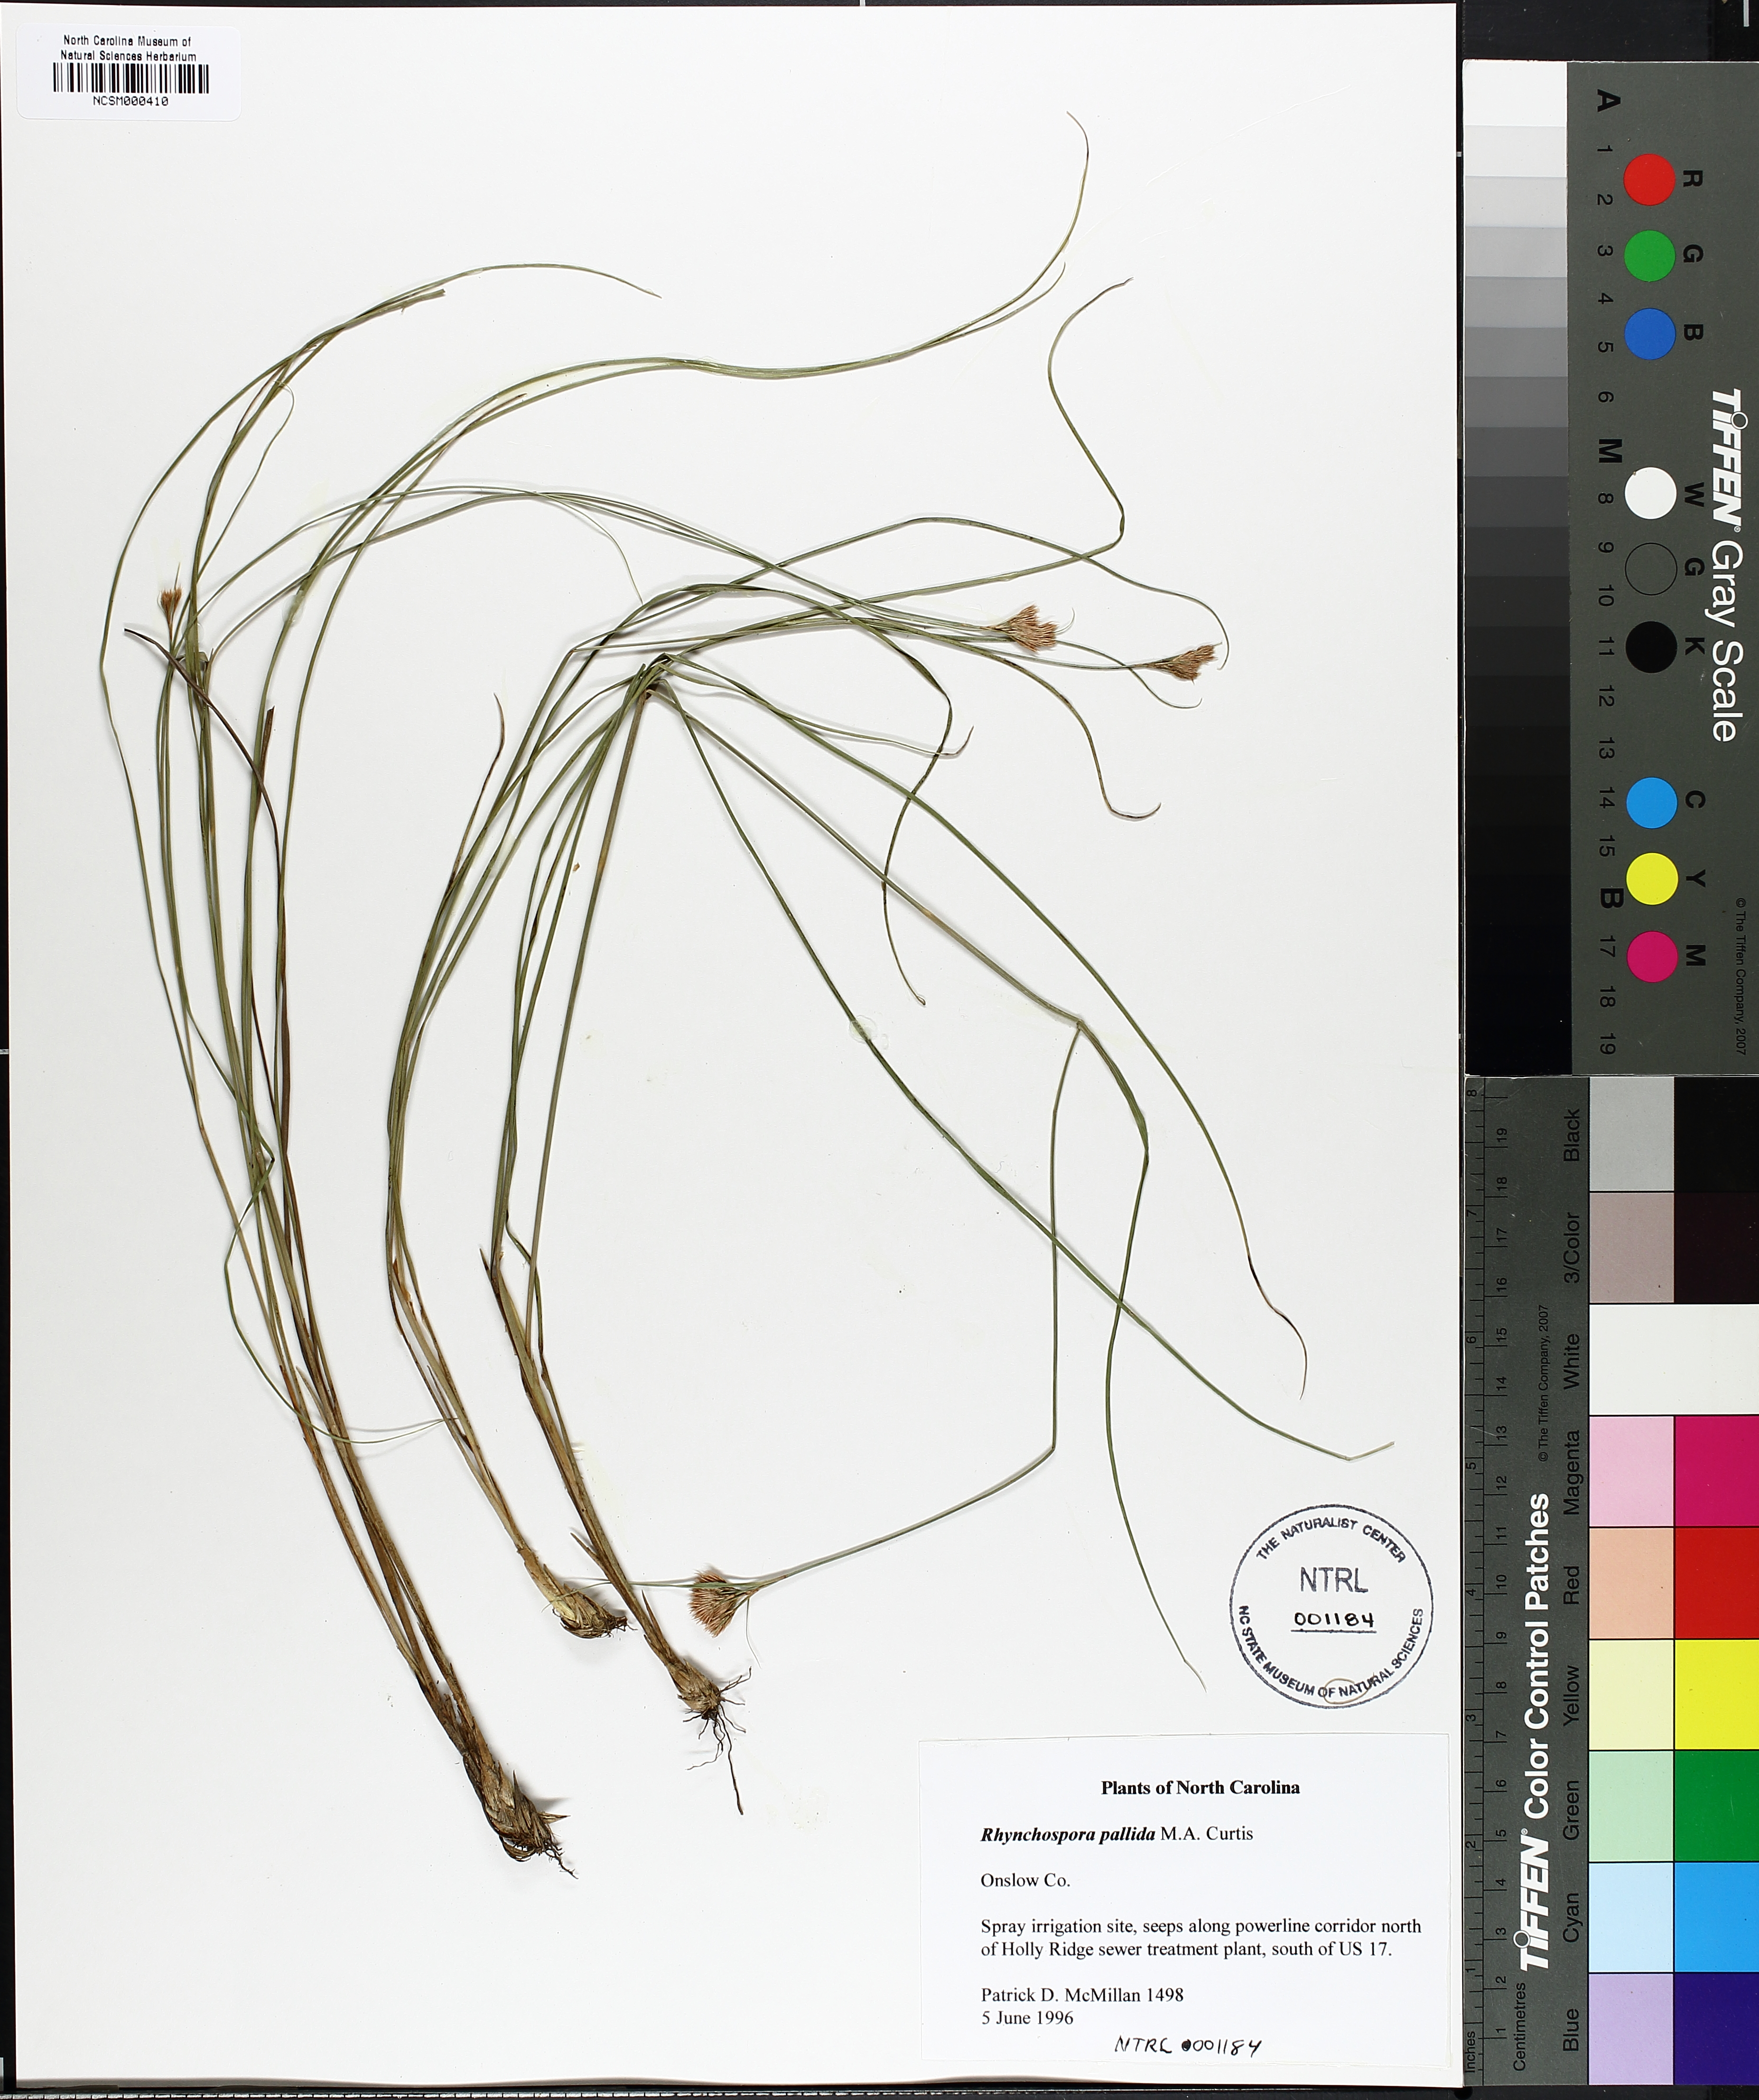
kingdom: Plantae
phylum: Tracheophyta
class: Liliopsida
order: Poales
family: Cyperaceae
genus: Rhynchospora
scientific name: Rhynchospora pallida
